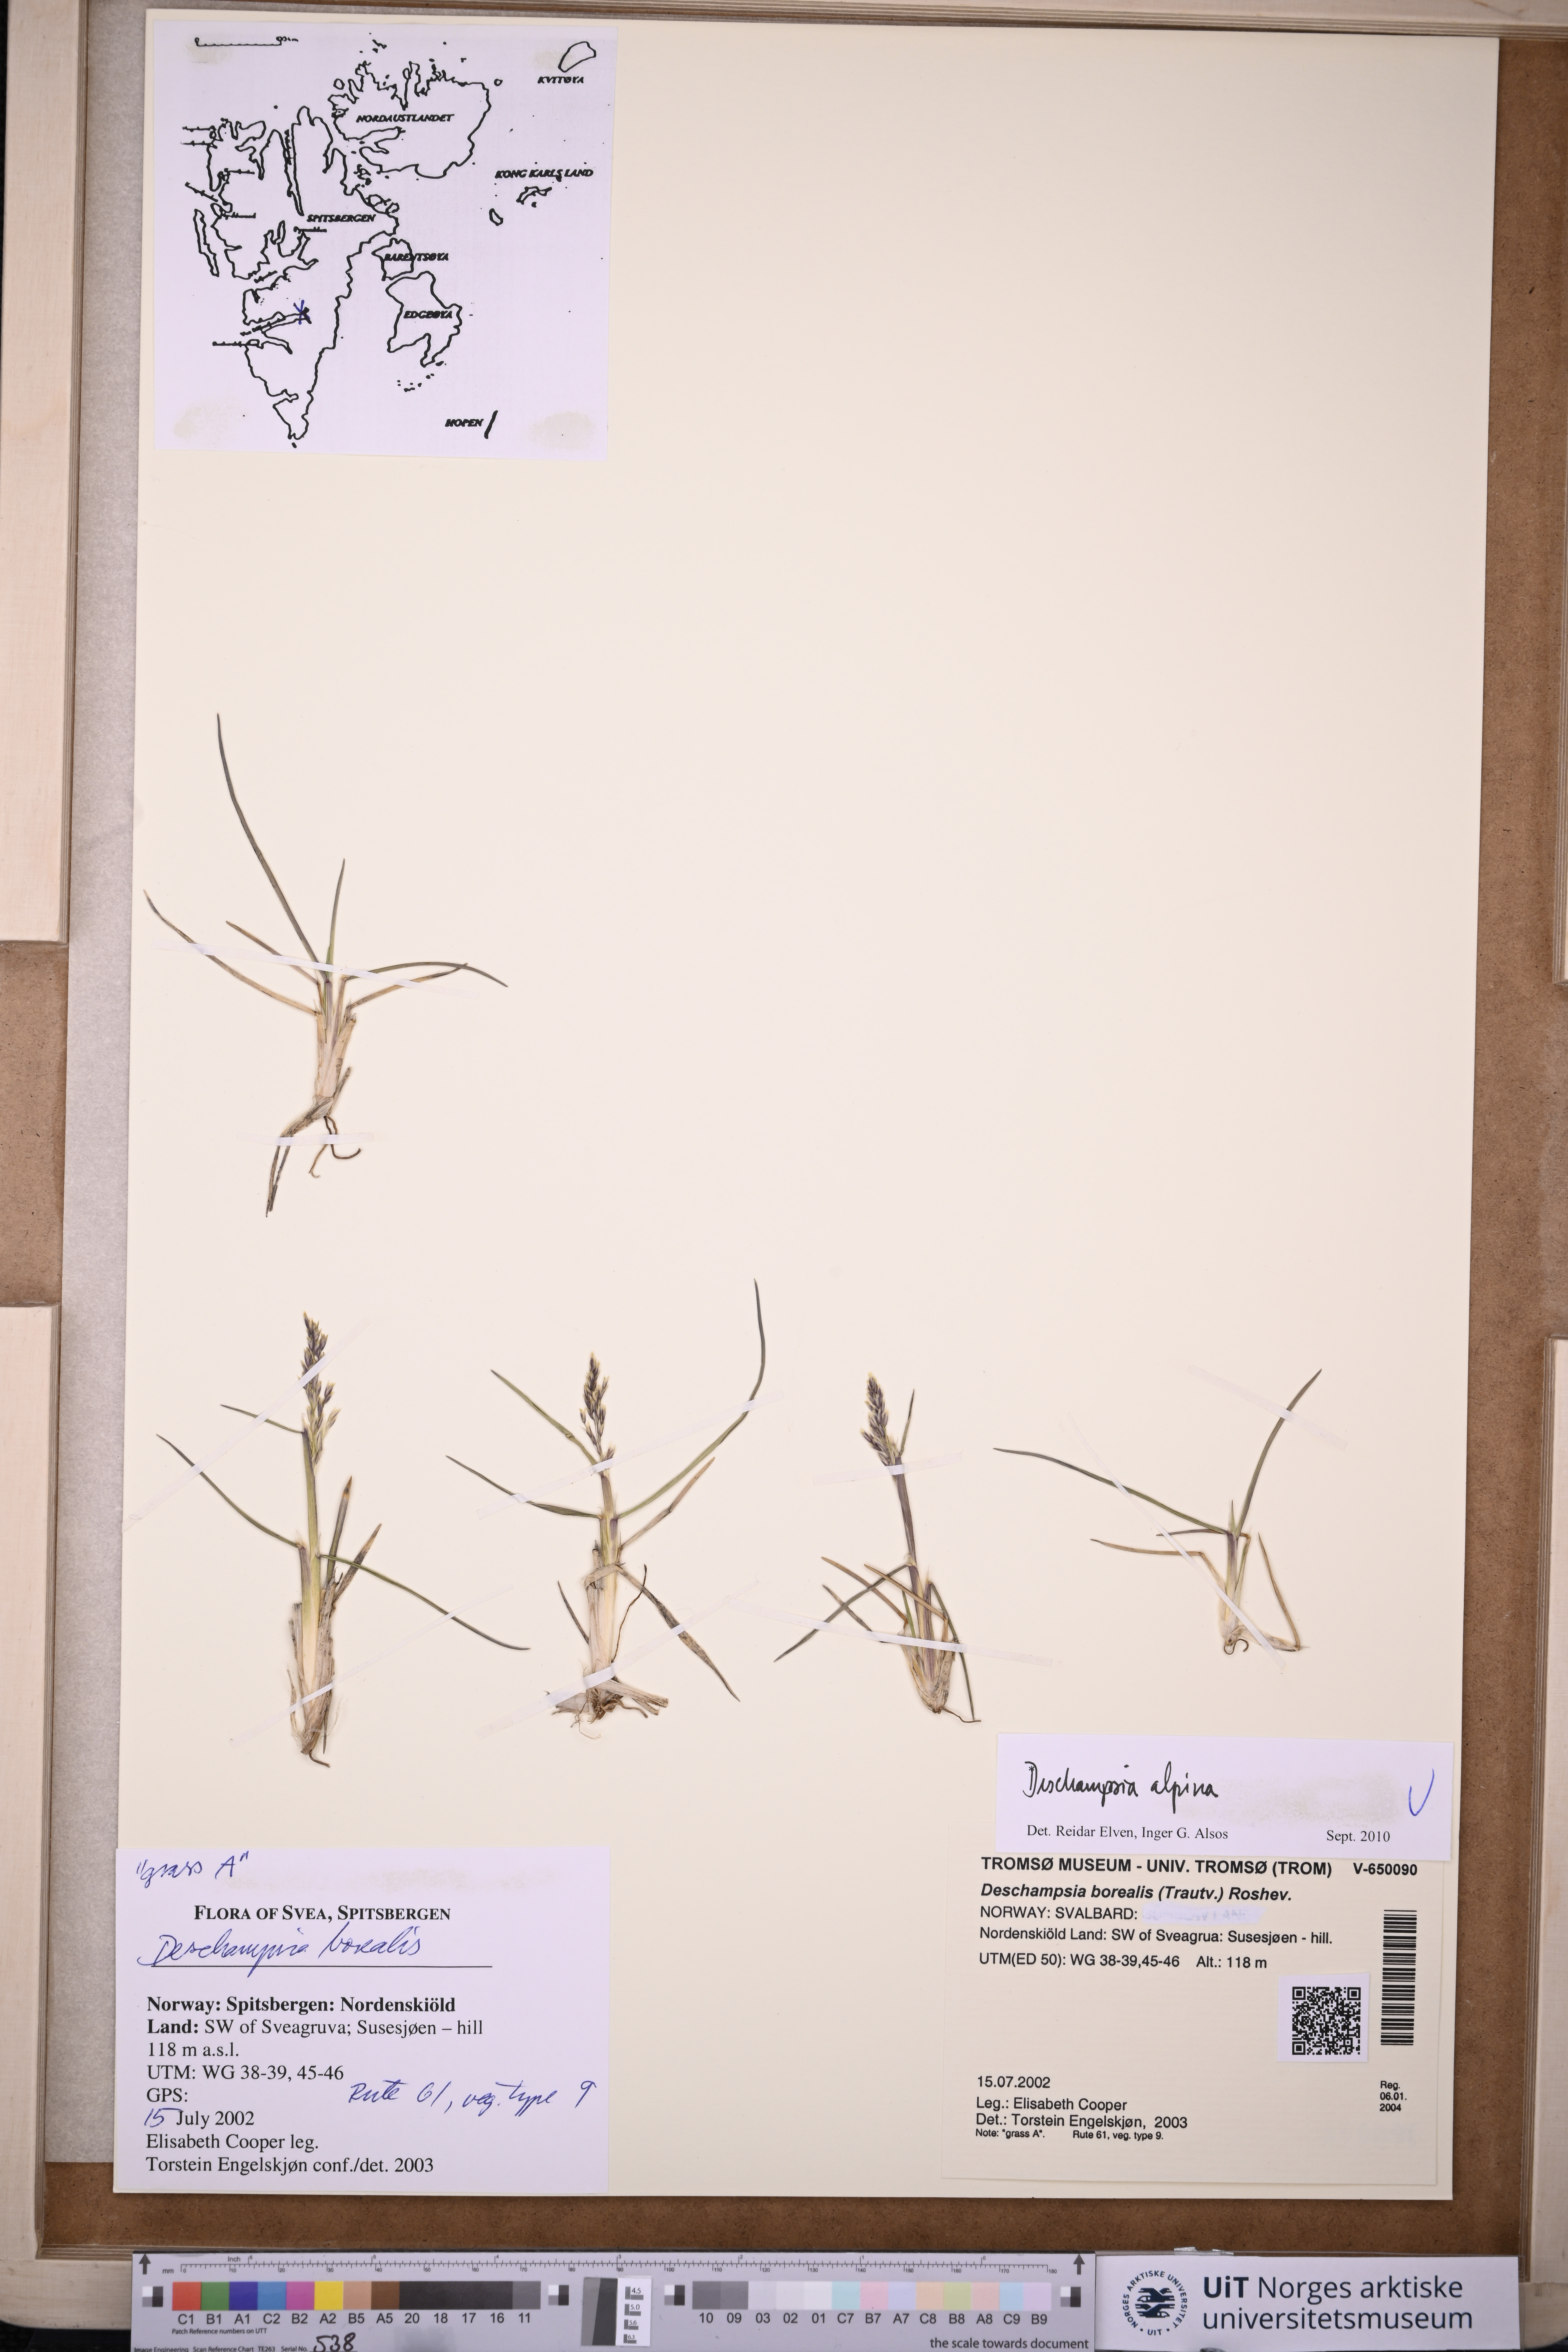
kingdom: Plantae
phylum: Tracheophyta
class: Liliopsida
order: Poales
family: Poaceae
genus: Deschampsia
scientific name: Deschampsia cespitosa
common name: Tufted hair-grass
